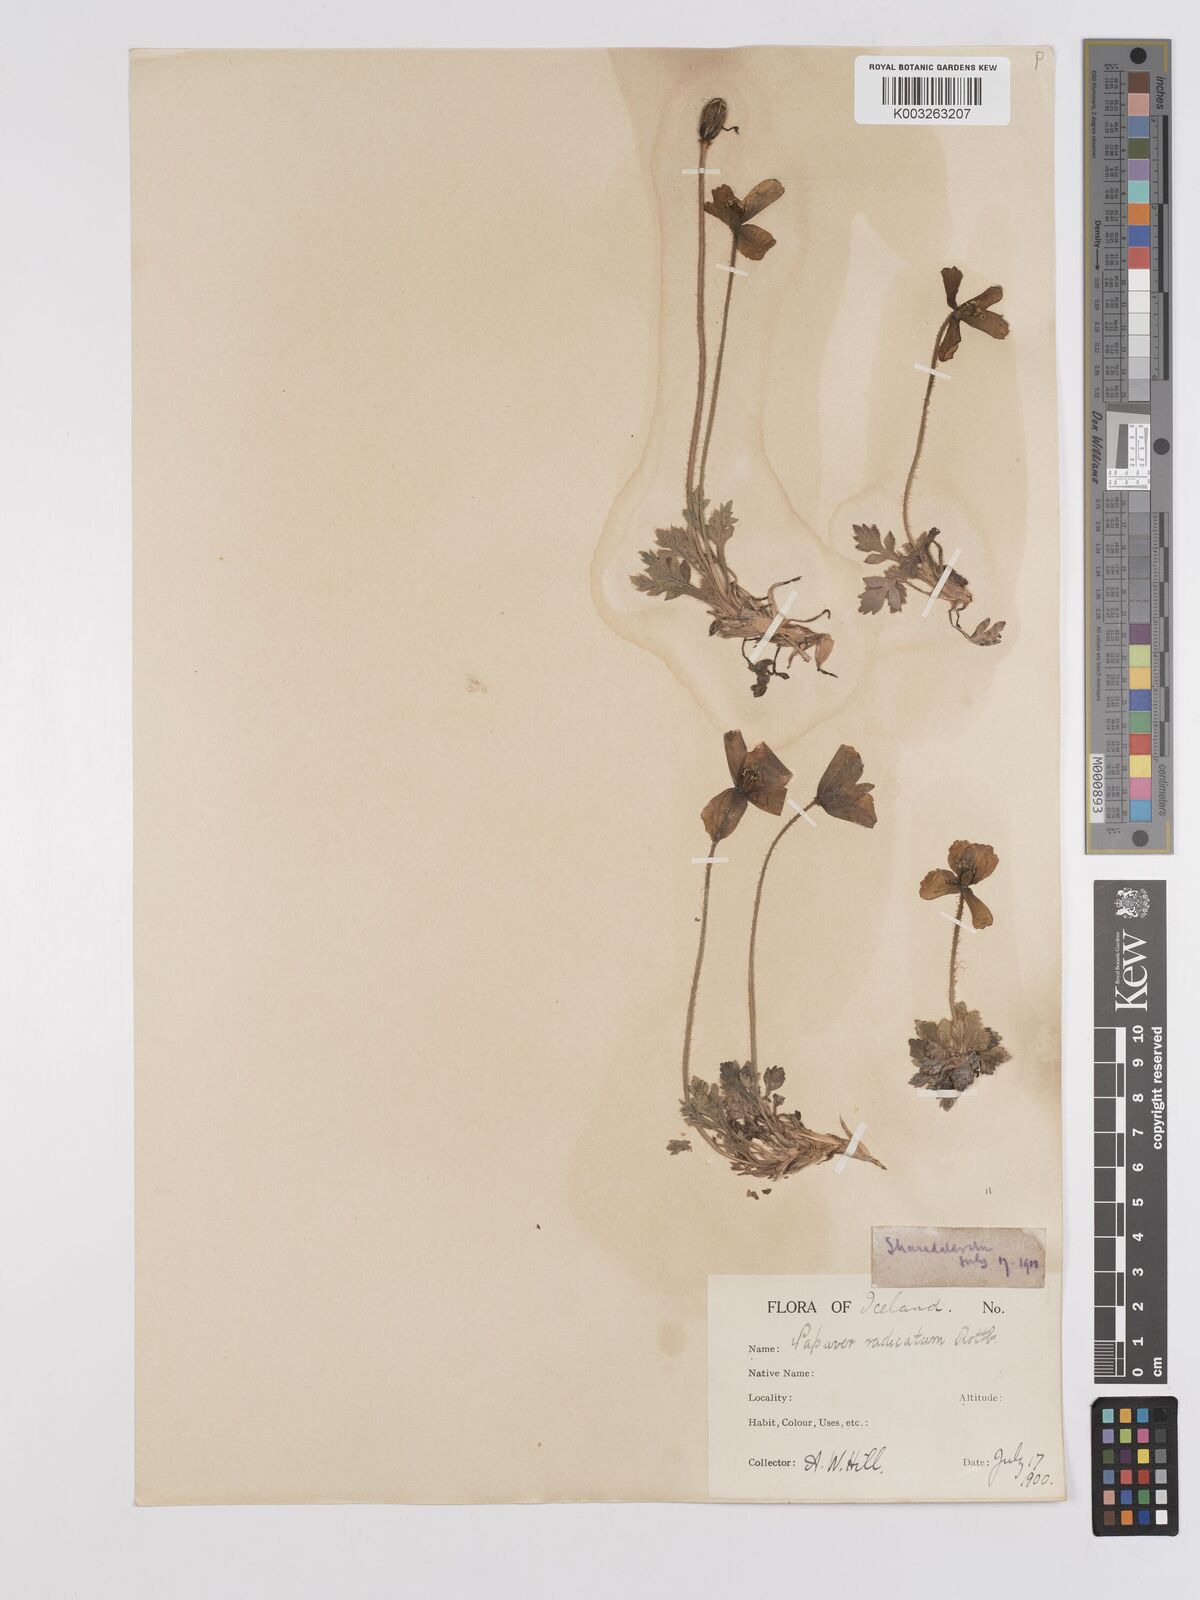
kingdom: Plantae
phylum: Tracheophyta
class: Magnoliopsida
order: Ranunculales
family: Papaveraceae
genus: Papaver
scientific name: Papaver radicatum
